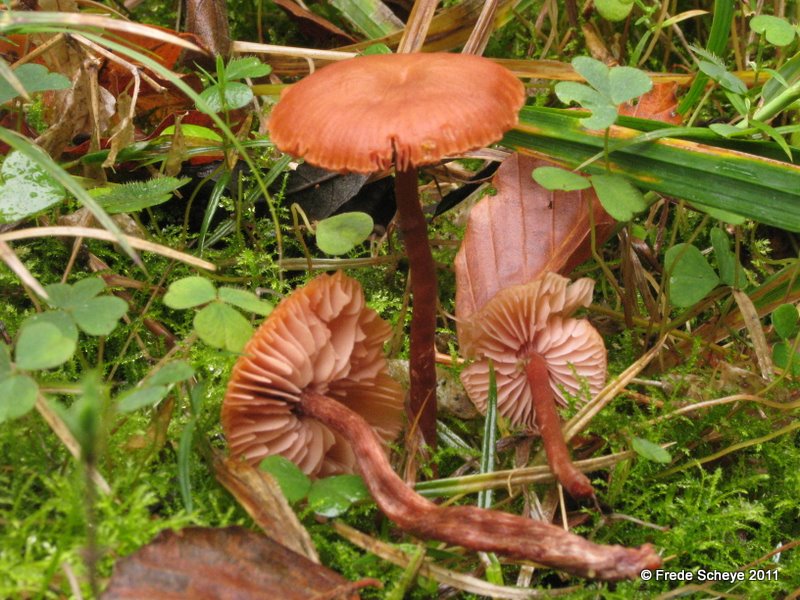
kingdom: Fungi
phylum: Basidiomycota
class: Agaricomycetes
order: Agaricales
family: Hydnangiaceae
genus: Laccaria
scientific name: Laccaria laccata
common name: rød ametysthat
